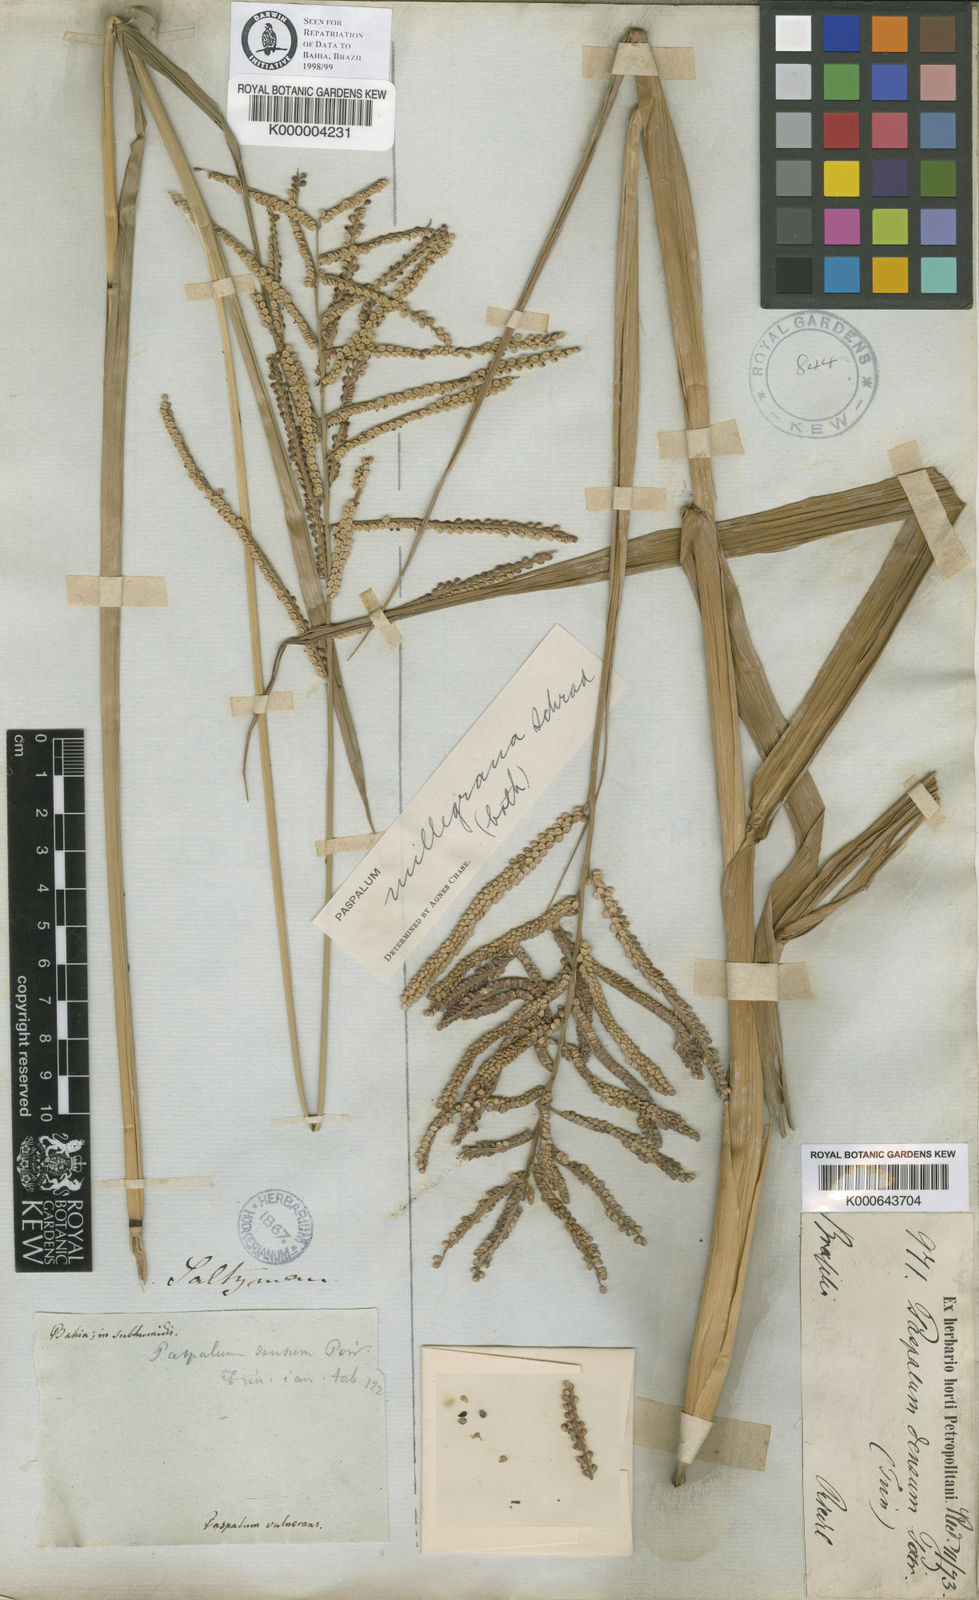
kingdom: Plantae
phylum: Tracheophyta
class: Liliopsida
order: Poales
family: Poaceae
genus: Paspalum
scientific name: Paspalum
